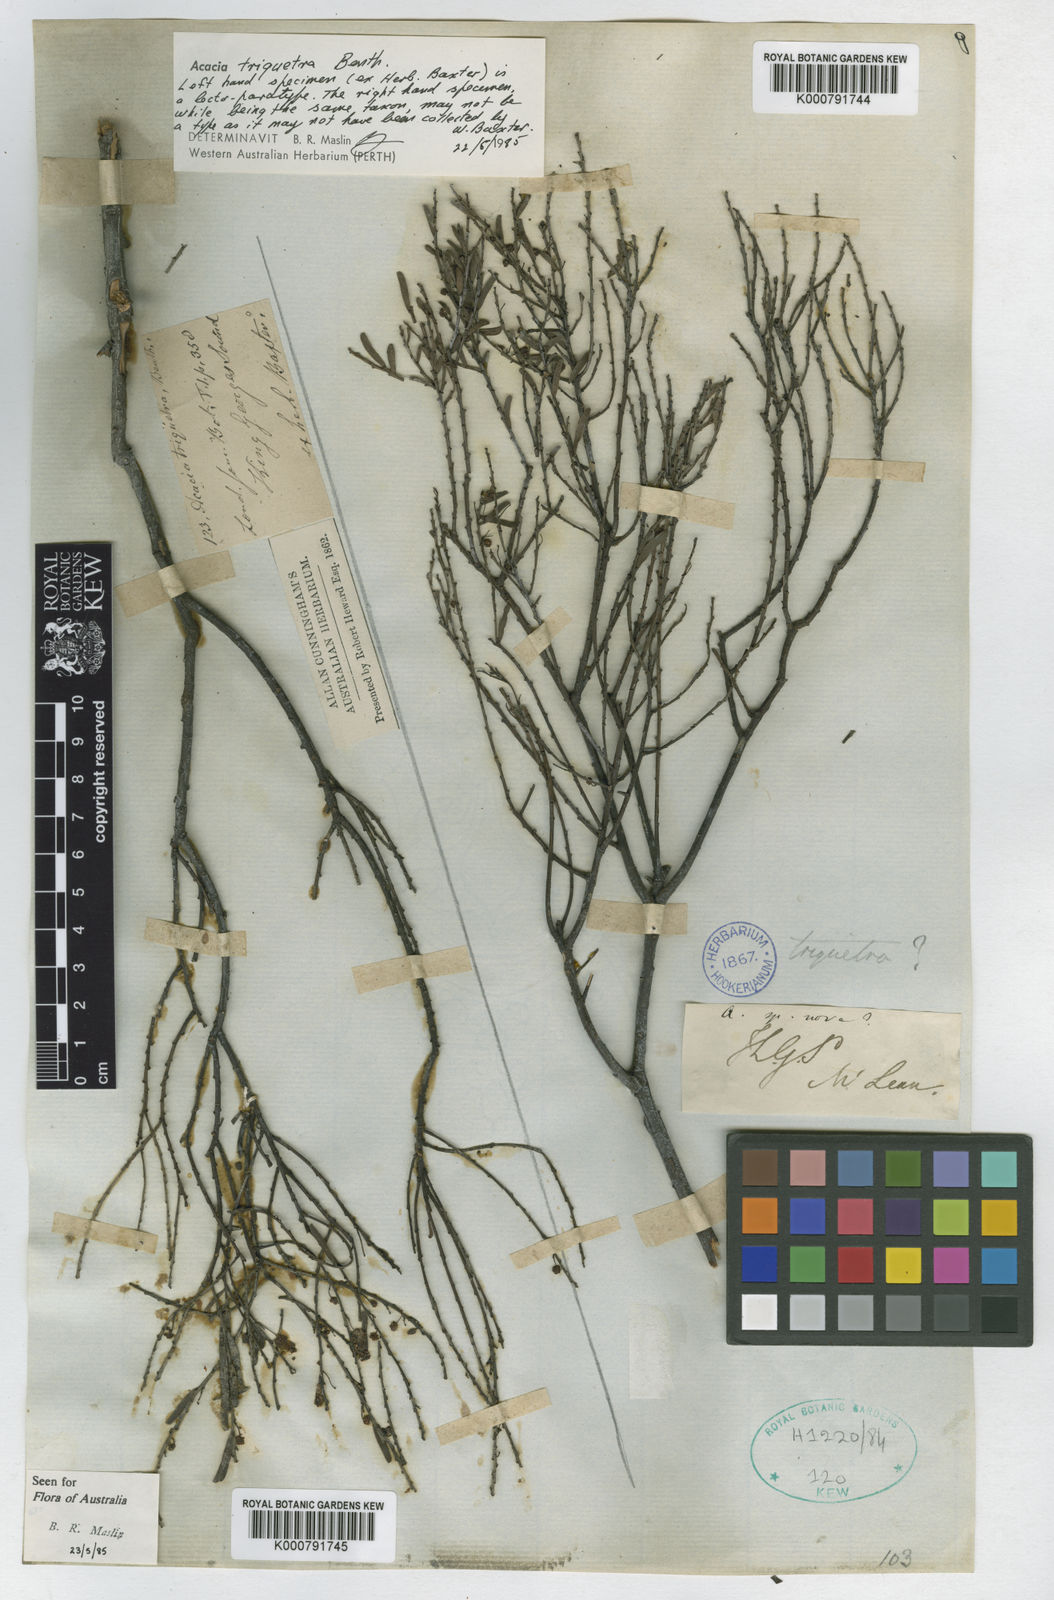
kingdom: Plantae
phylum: Tracheophyta
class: Magnoliopsida
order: Fabales
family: Fabaceae
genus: Acacia
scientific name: Acacia triquetra
